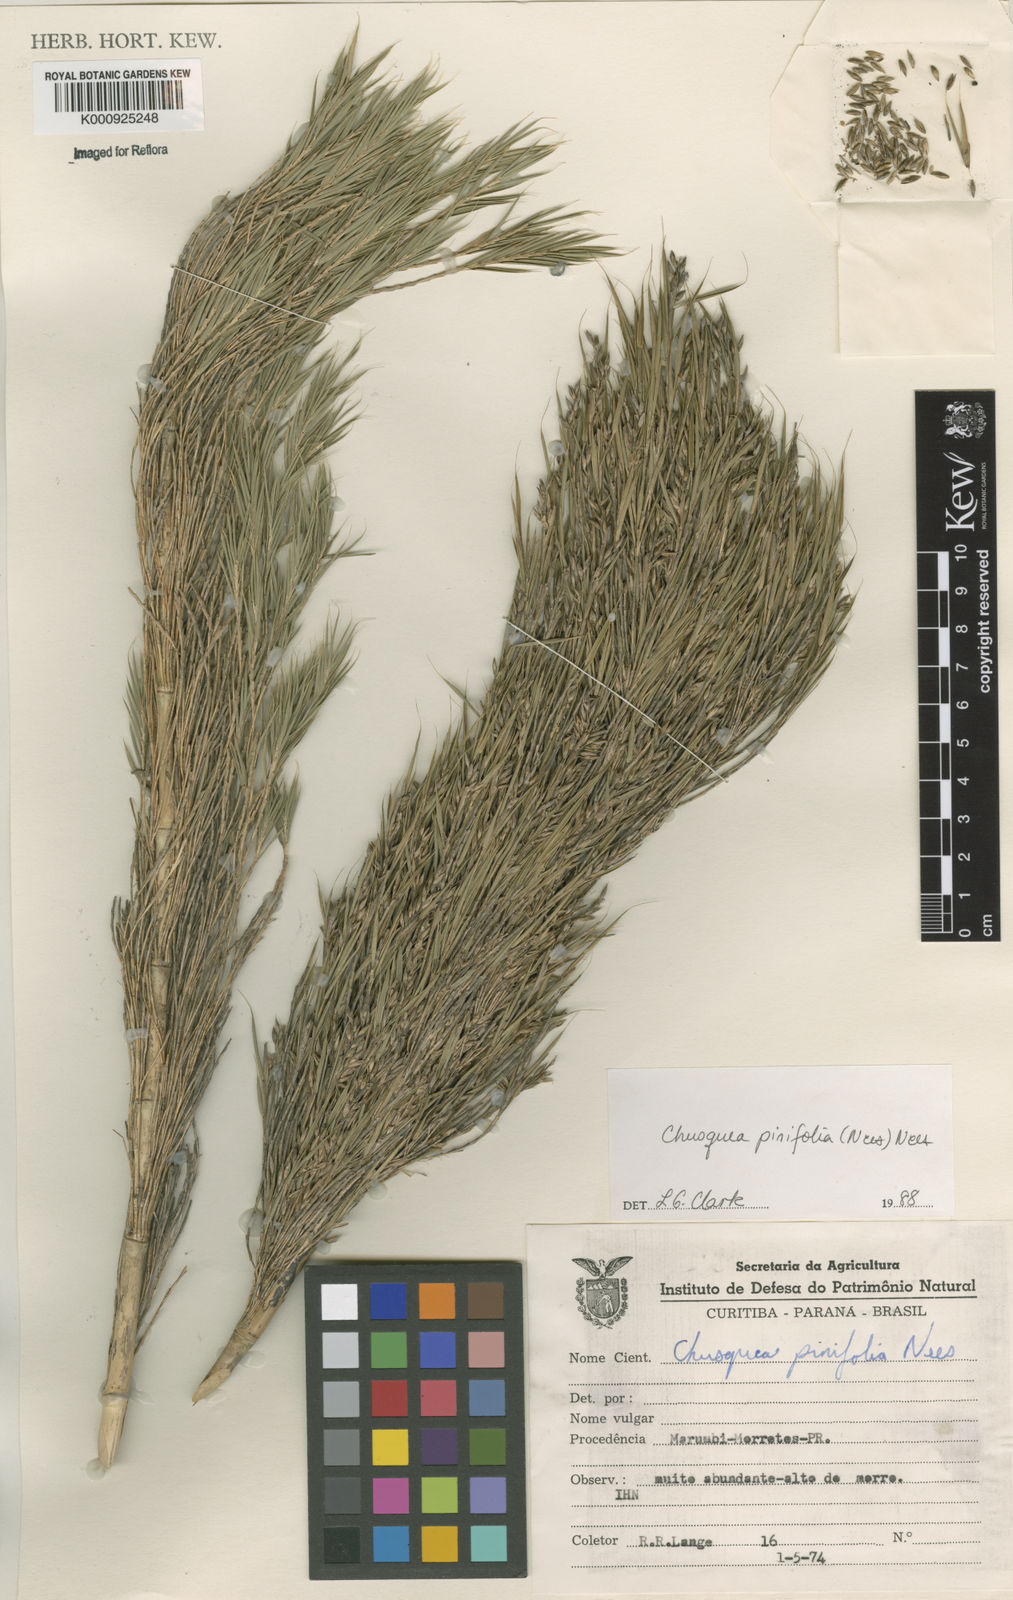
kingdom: Plantae
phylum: Tracheophyta
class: Liliopsida
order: Poales
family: Poaceae
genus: Chusquea
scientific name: Chusquea pinifolia
